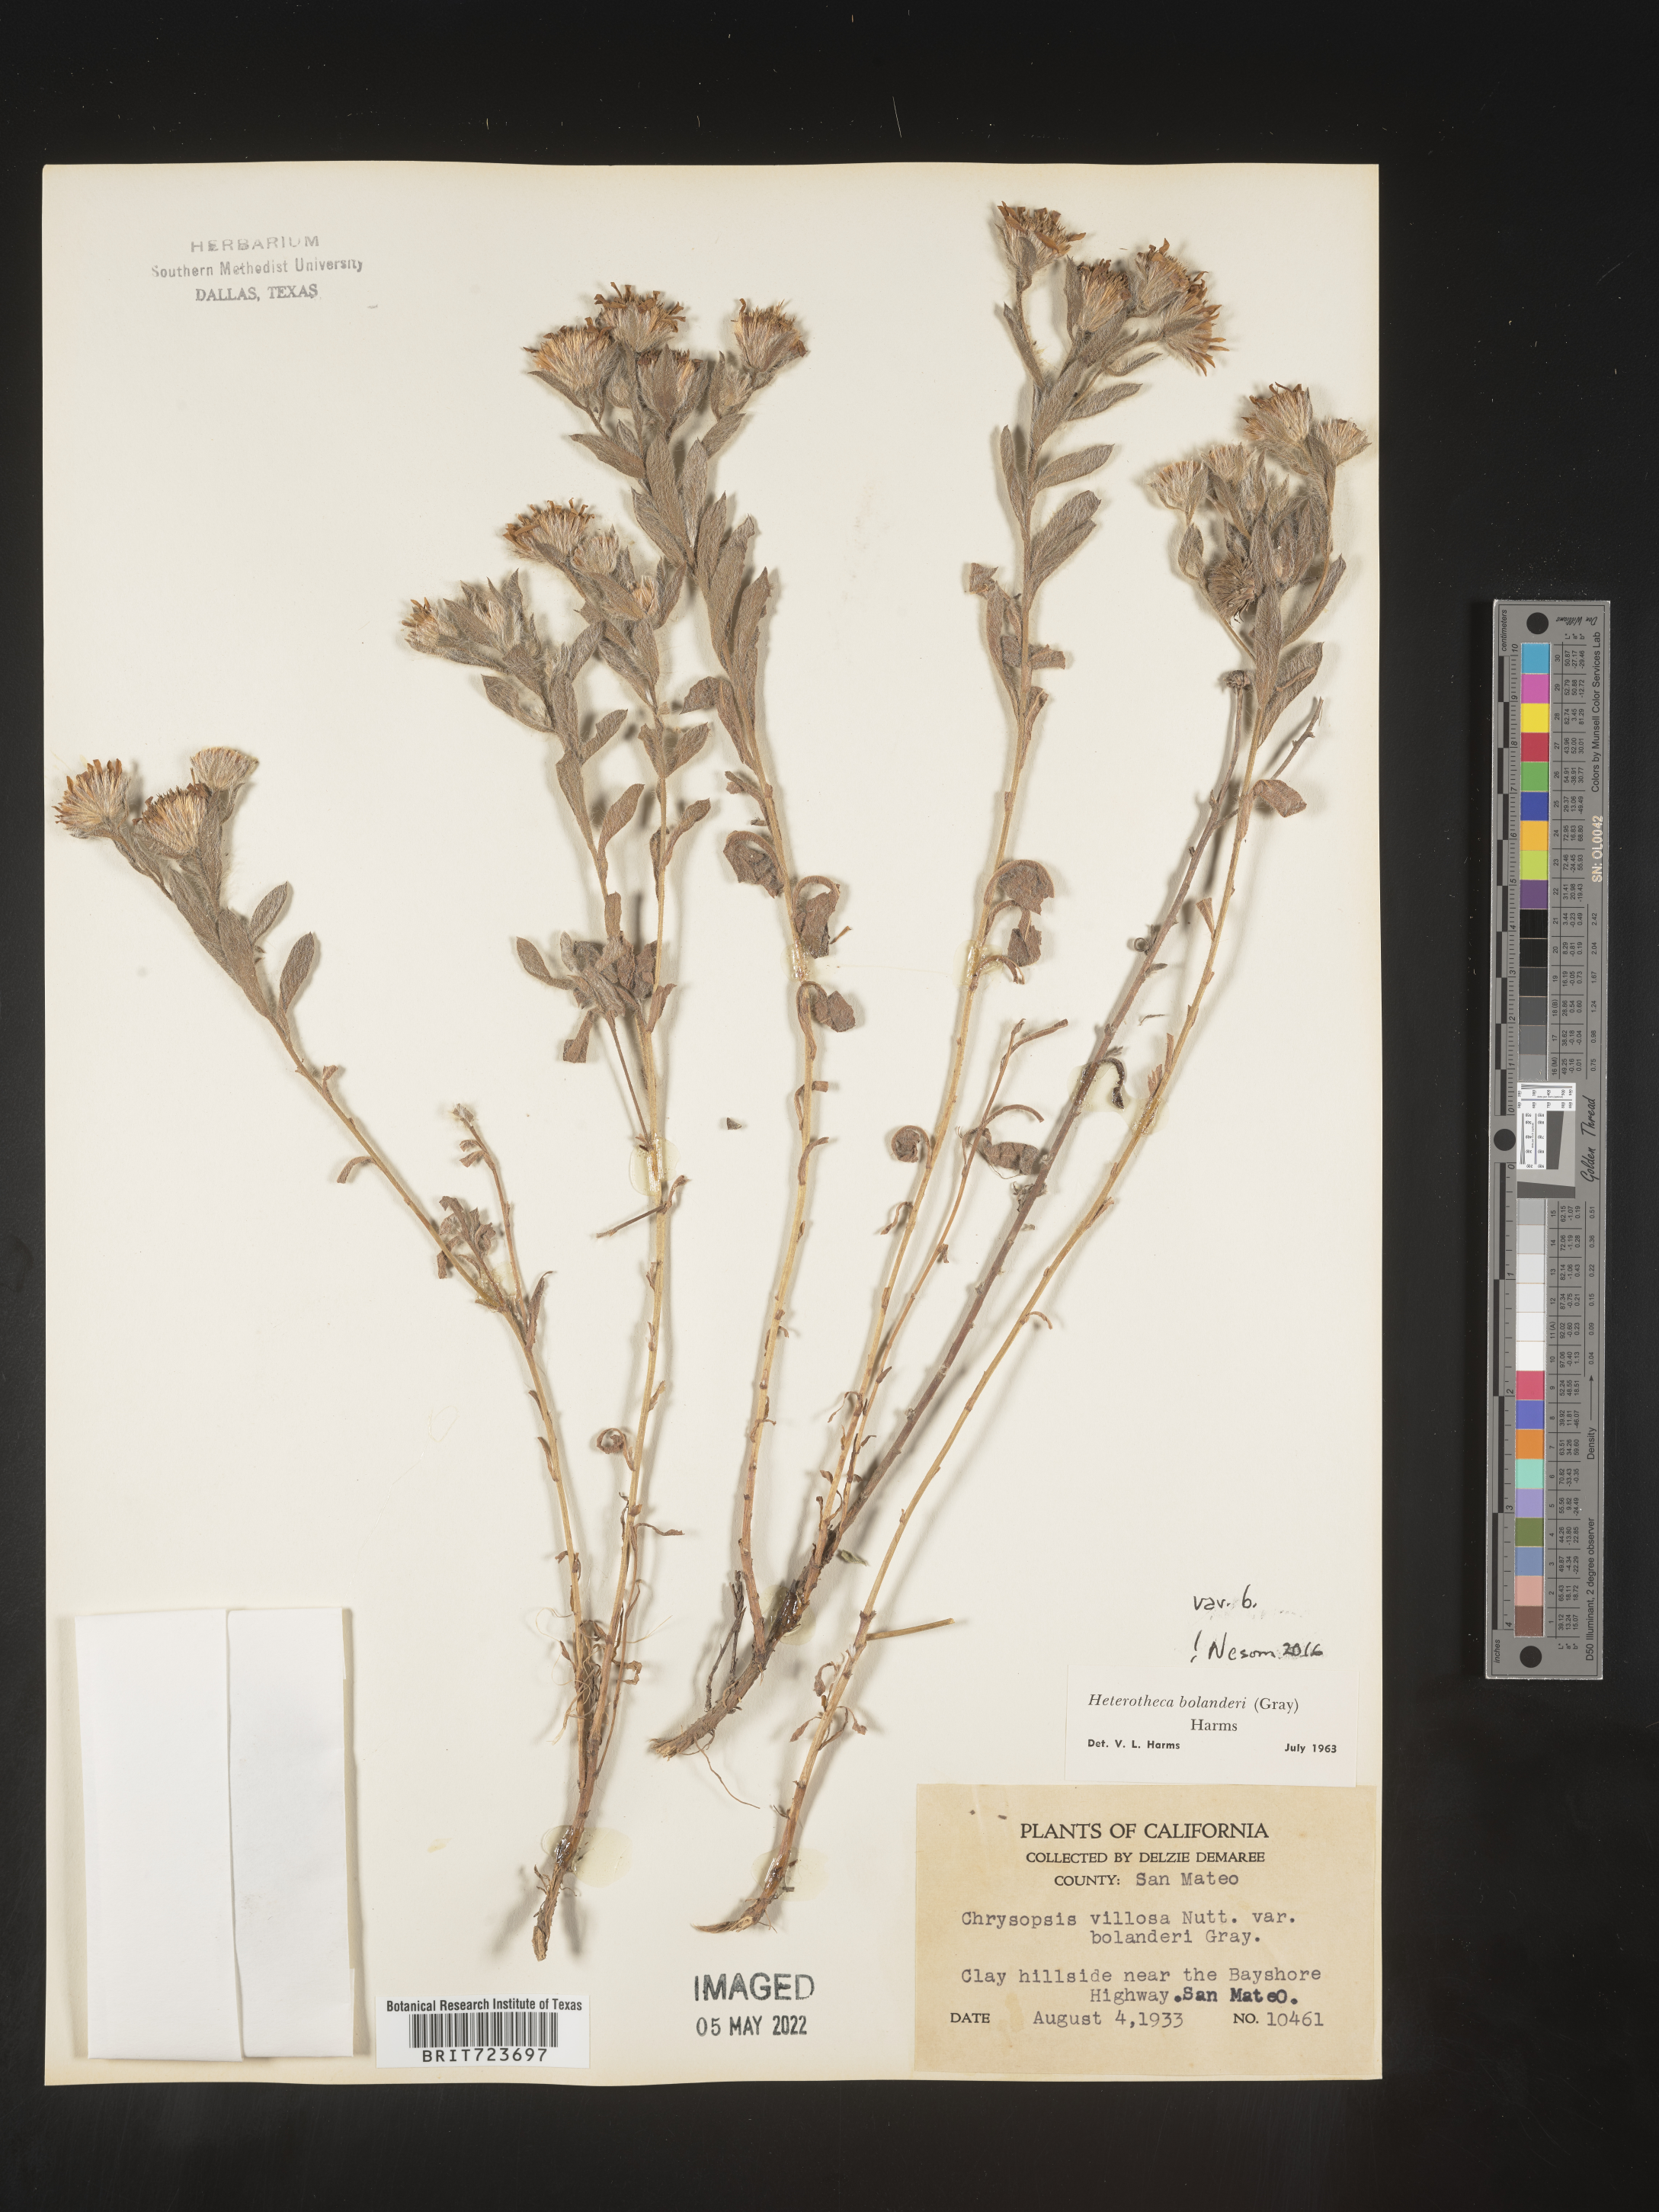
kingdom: Plantae
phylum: Tracheophyta
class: Magnoliopsida
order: Asterales
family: Asteraceae
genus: Heterotheca
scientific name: Heterotheca bolanderi
